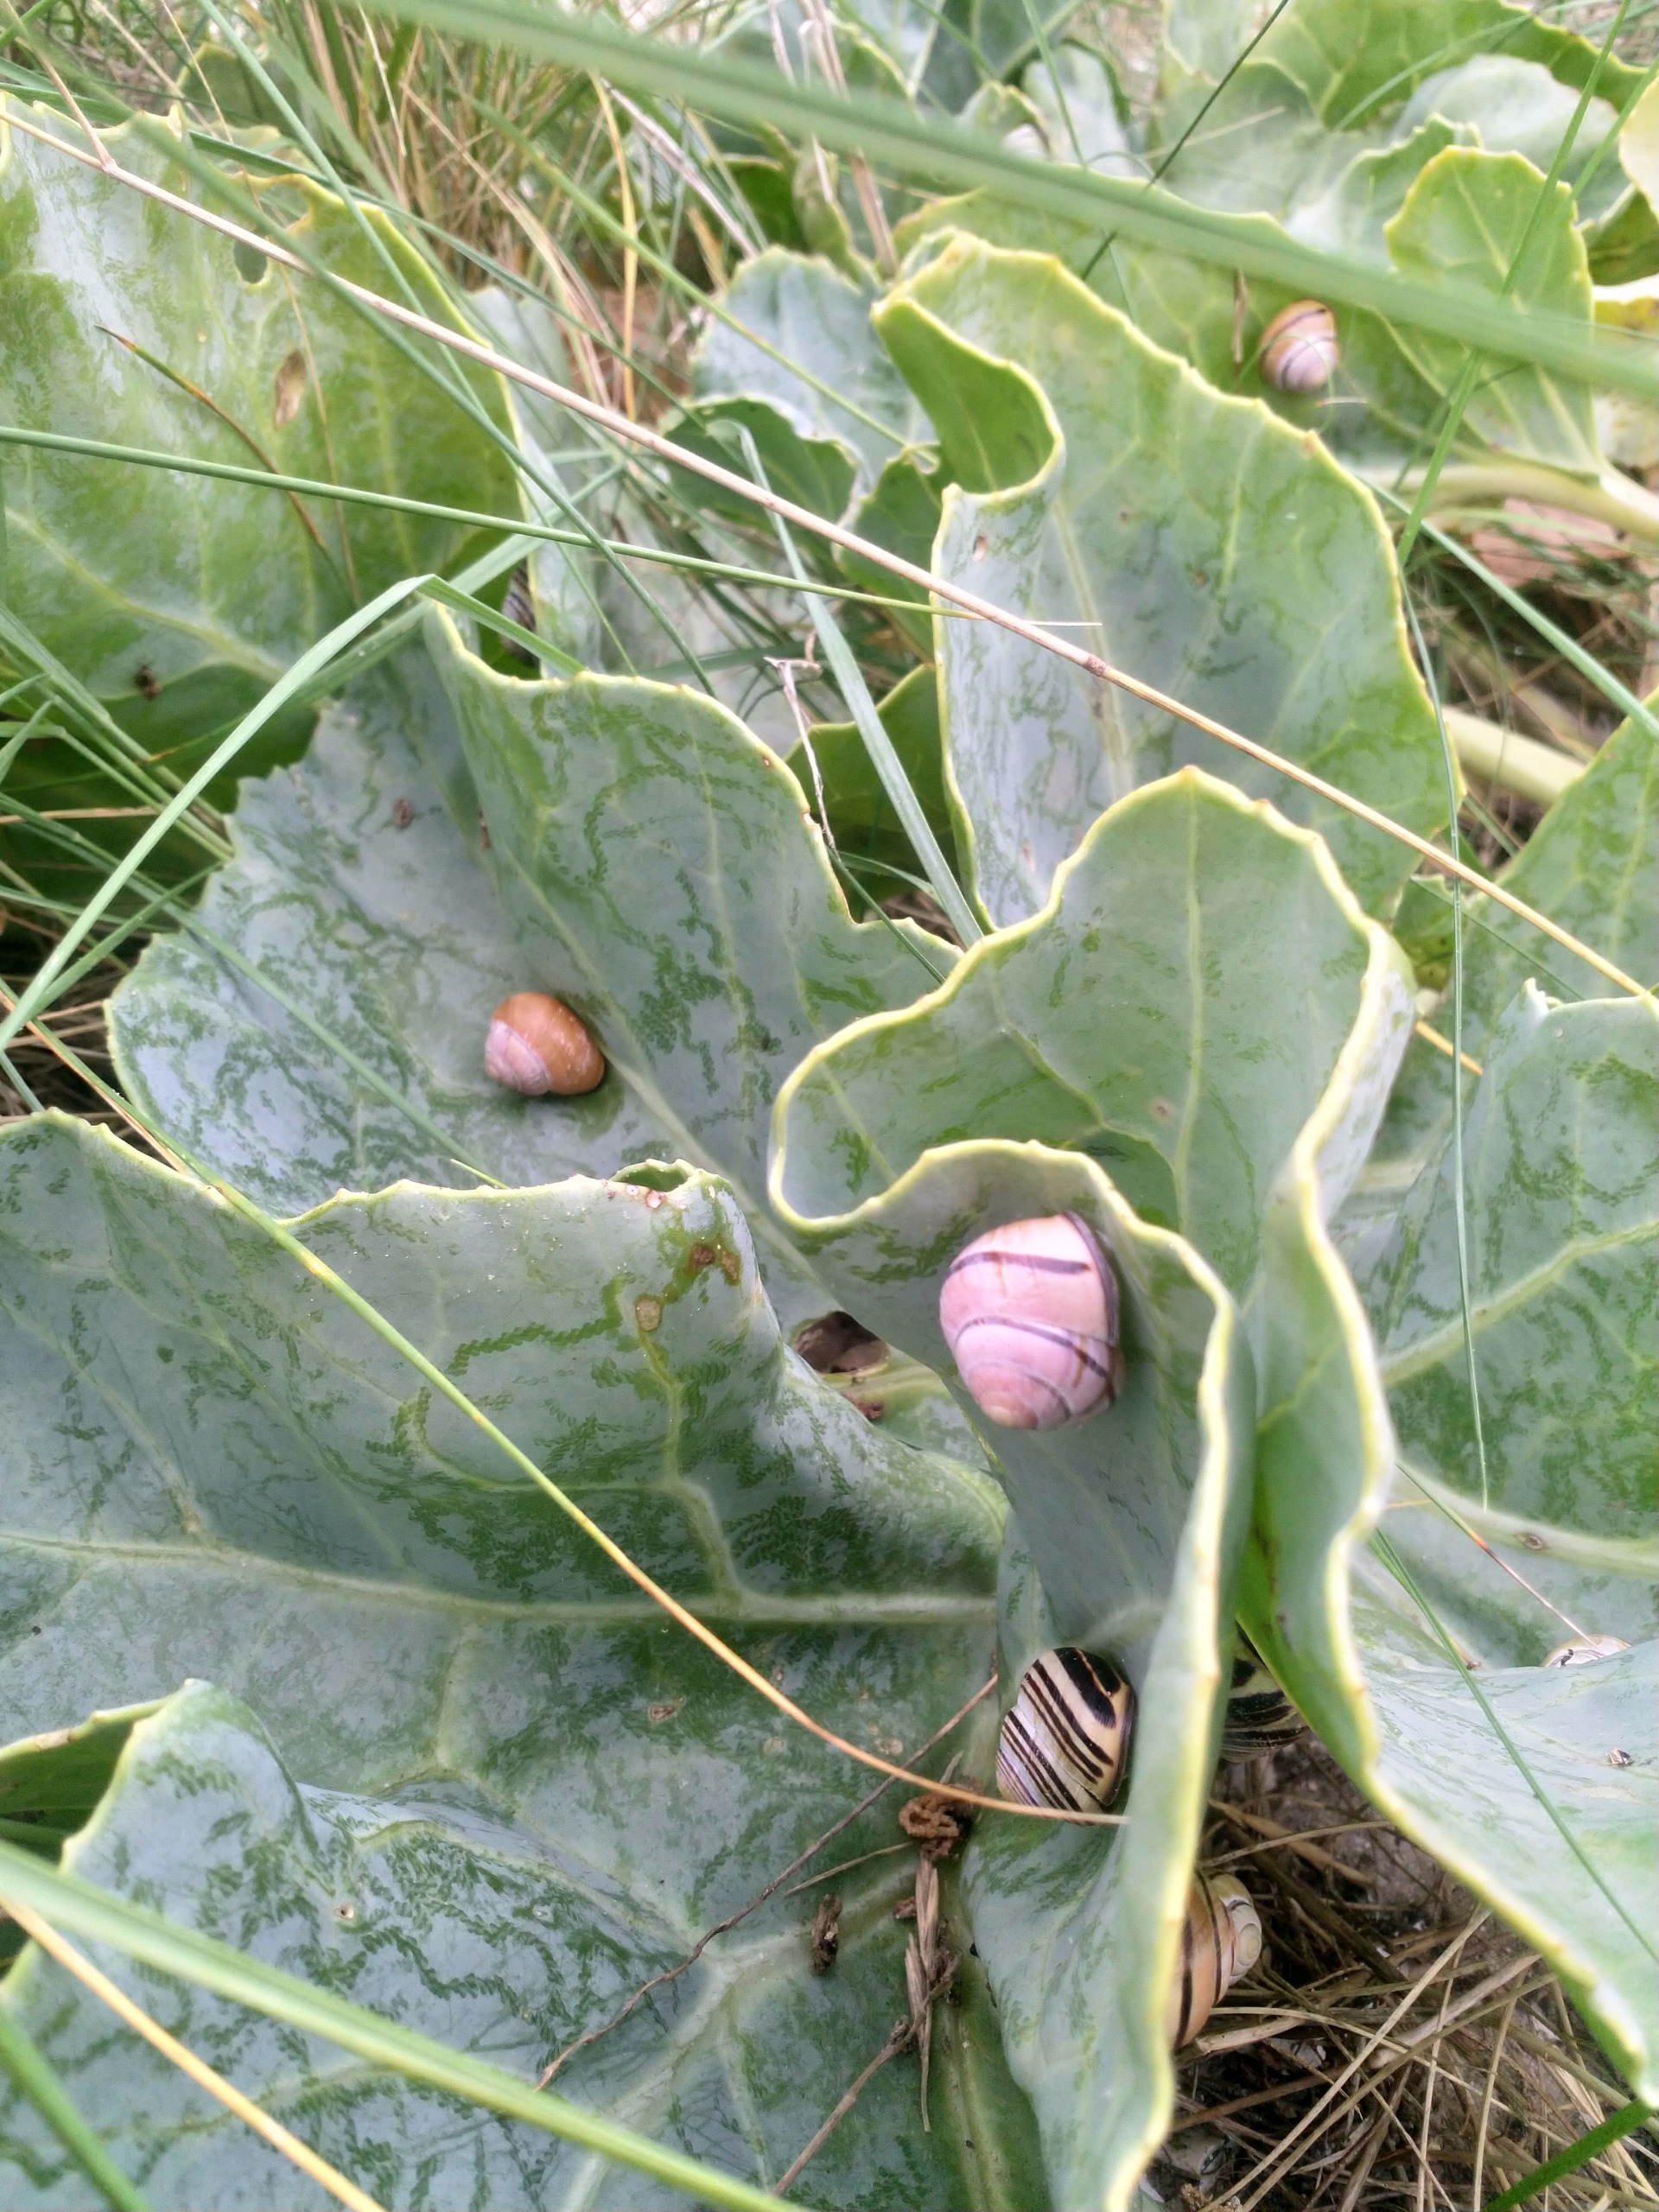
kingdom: Animalia
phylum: Mollusca
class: Gastropoda
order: Stylommatophora
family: Helicidae
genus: Cepaea
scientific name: Cepaea nemoralis
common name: Lundsnegl
